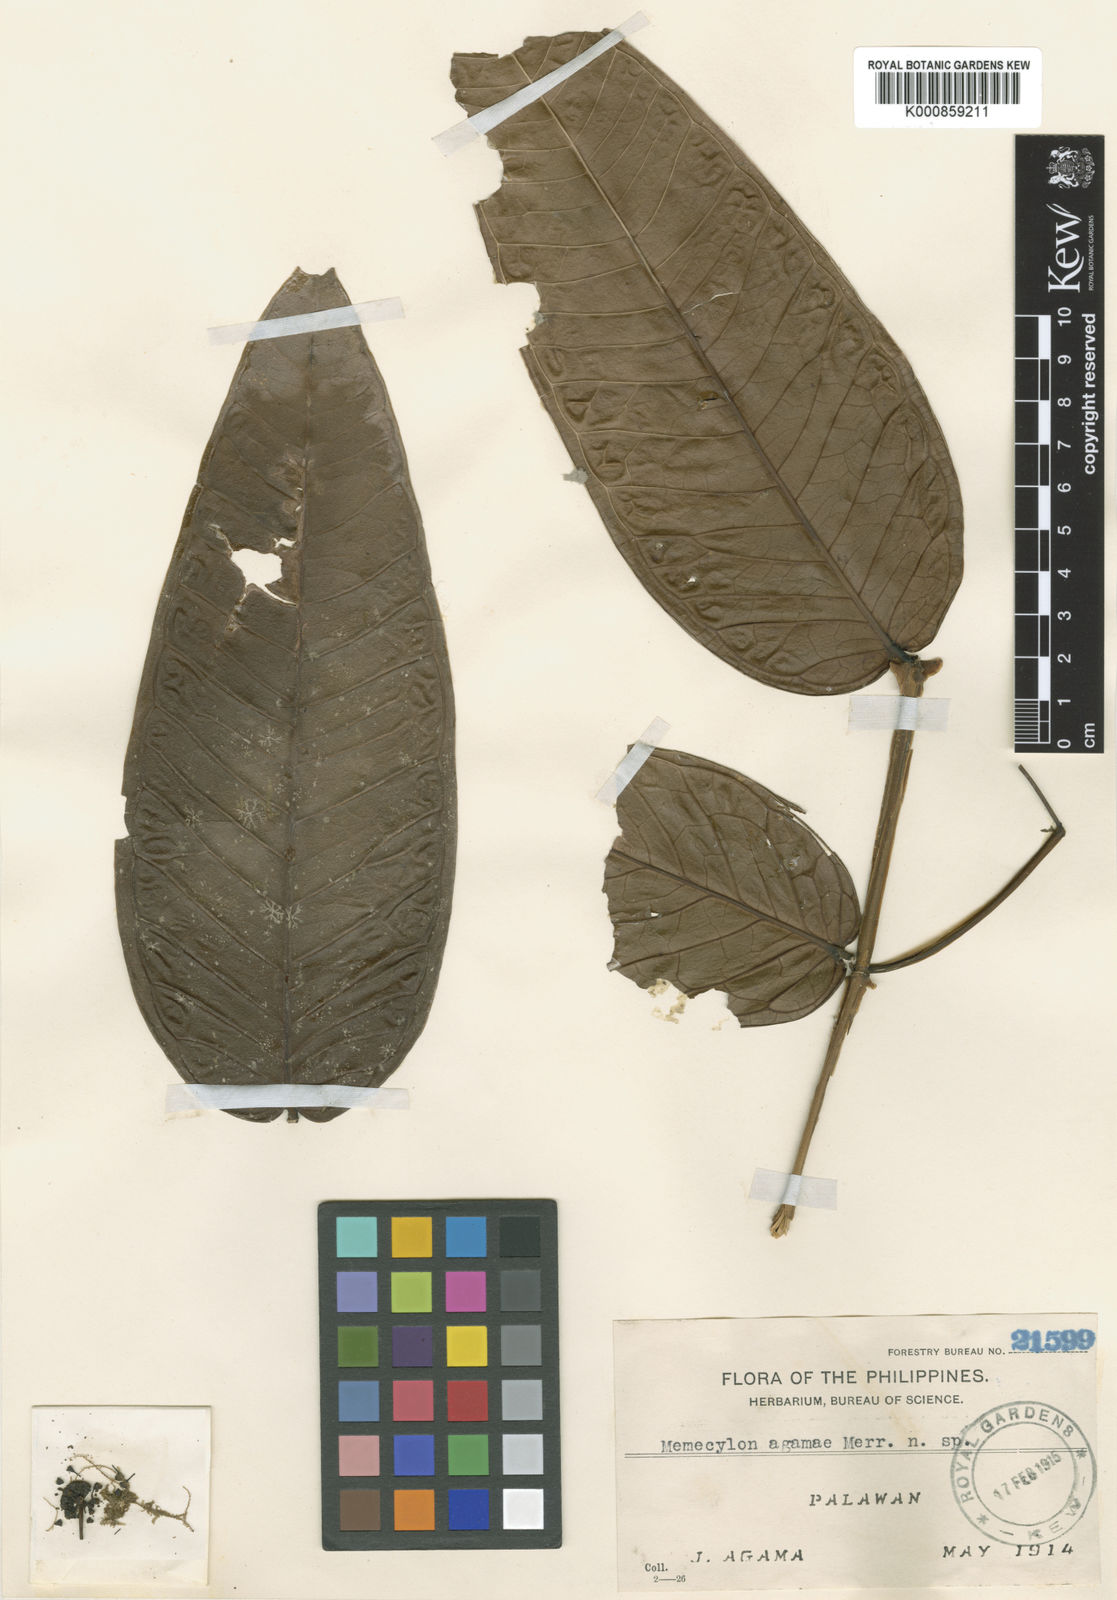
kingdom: Plantae
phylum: Tracheophyta
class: Magnoliopsida
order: Myrtales
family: Melastomataceae
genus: Memecylon
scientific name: Memecylon
